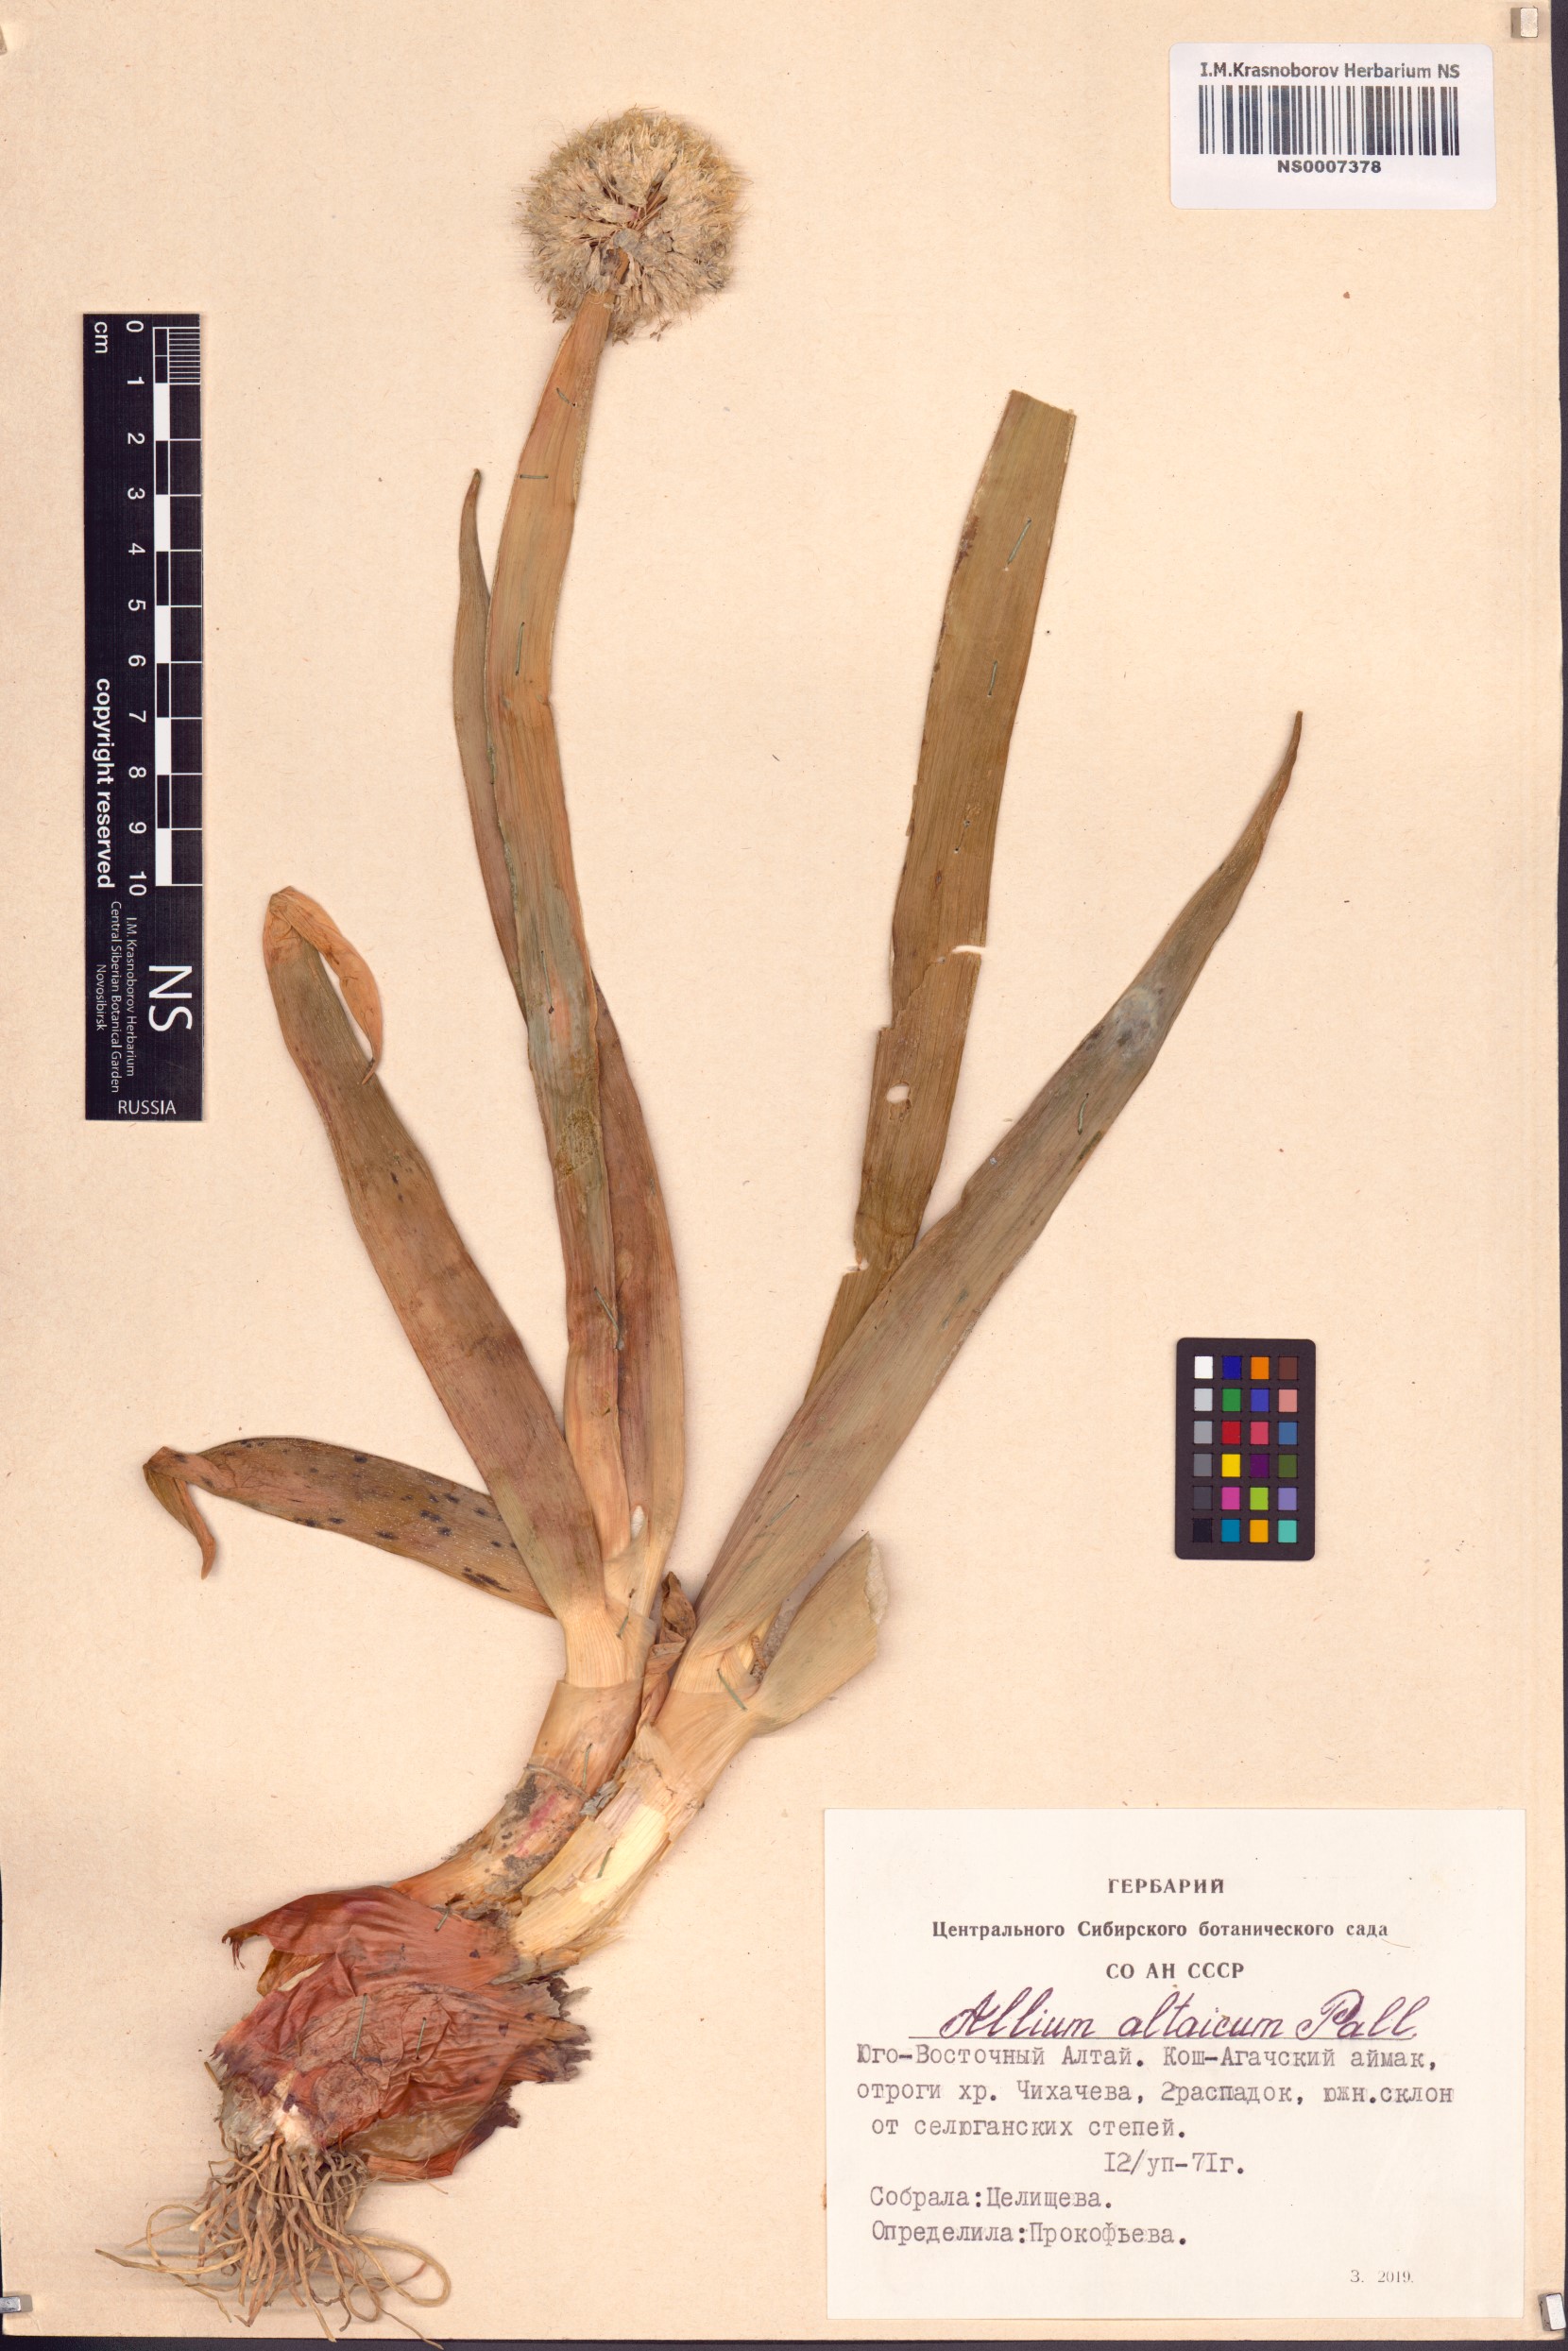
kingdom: Plantae
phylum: Tracheophyta
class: Liliopsida
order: Asparagales
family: Amaryllidaceae
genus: Allium
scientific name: Allium altaicum
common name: Altai onion
